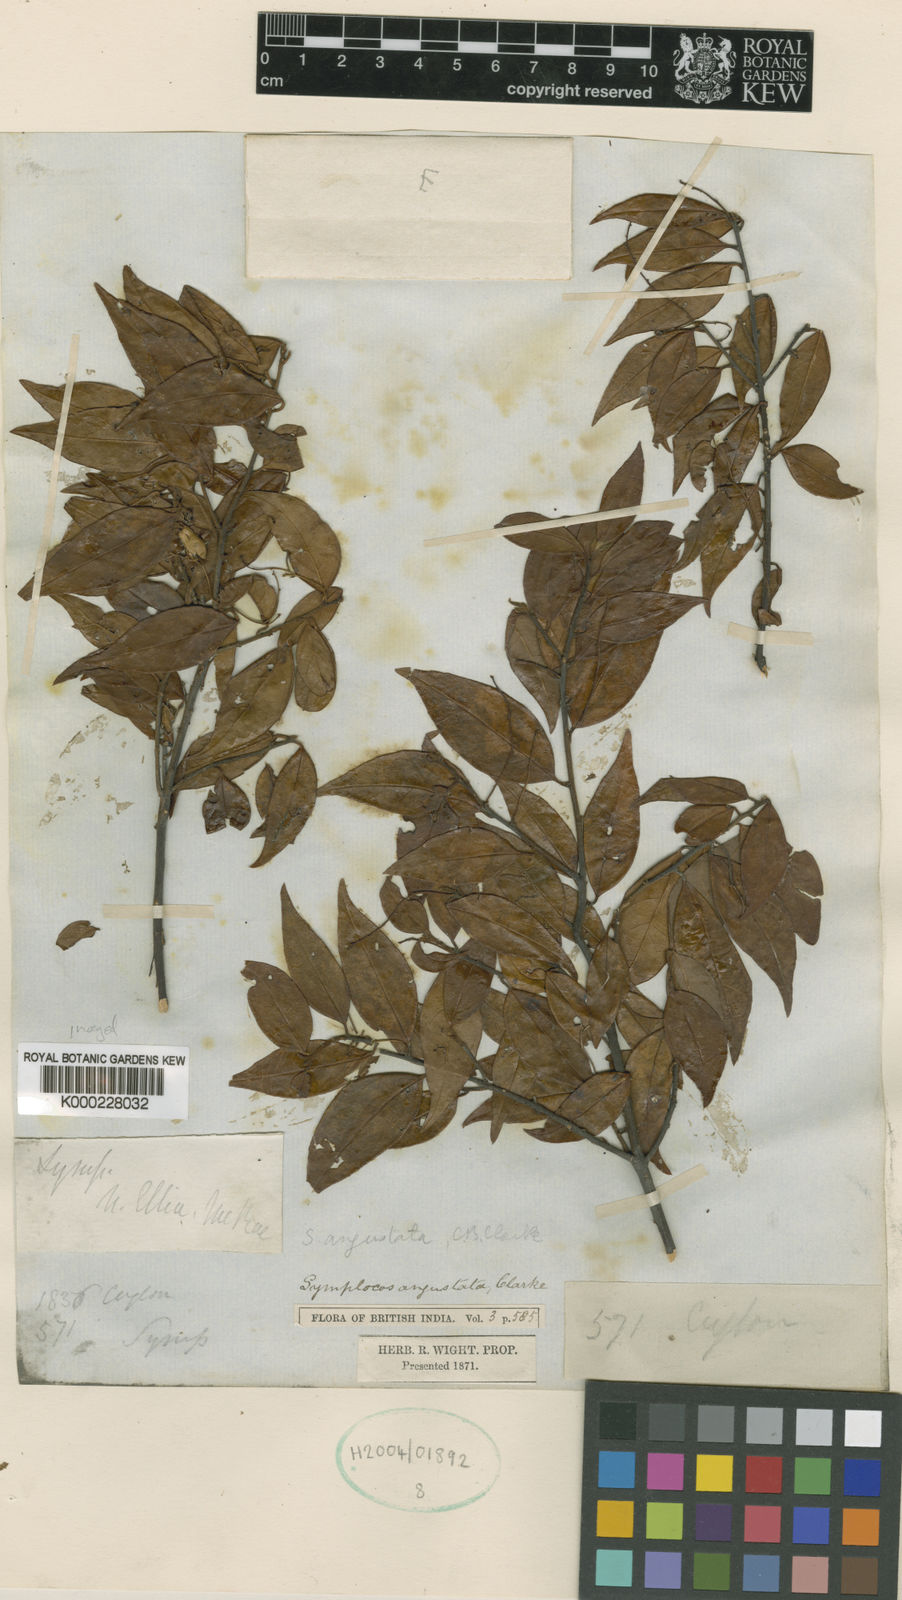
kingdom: Plantae
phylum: Tracheophyta
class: Magnoliopsida
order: Ericales
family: Symplocaceae
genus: Symplocos
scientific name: Symplocos
